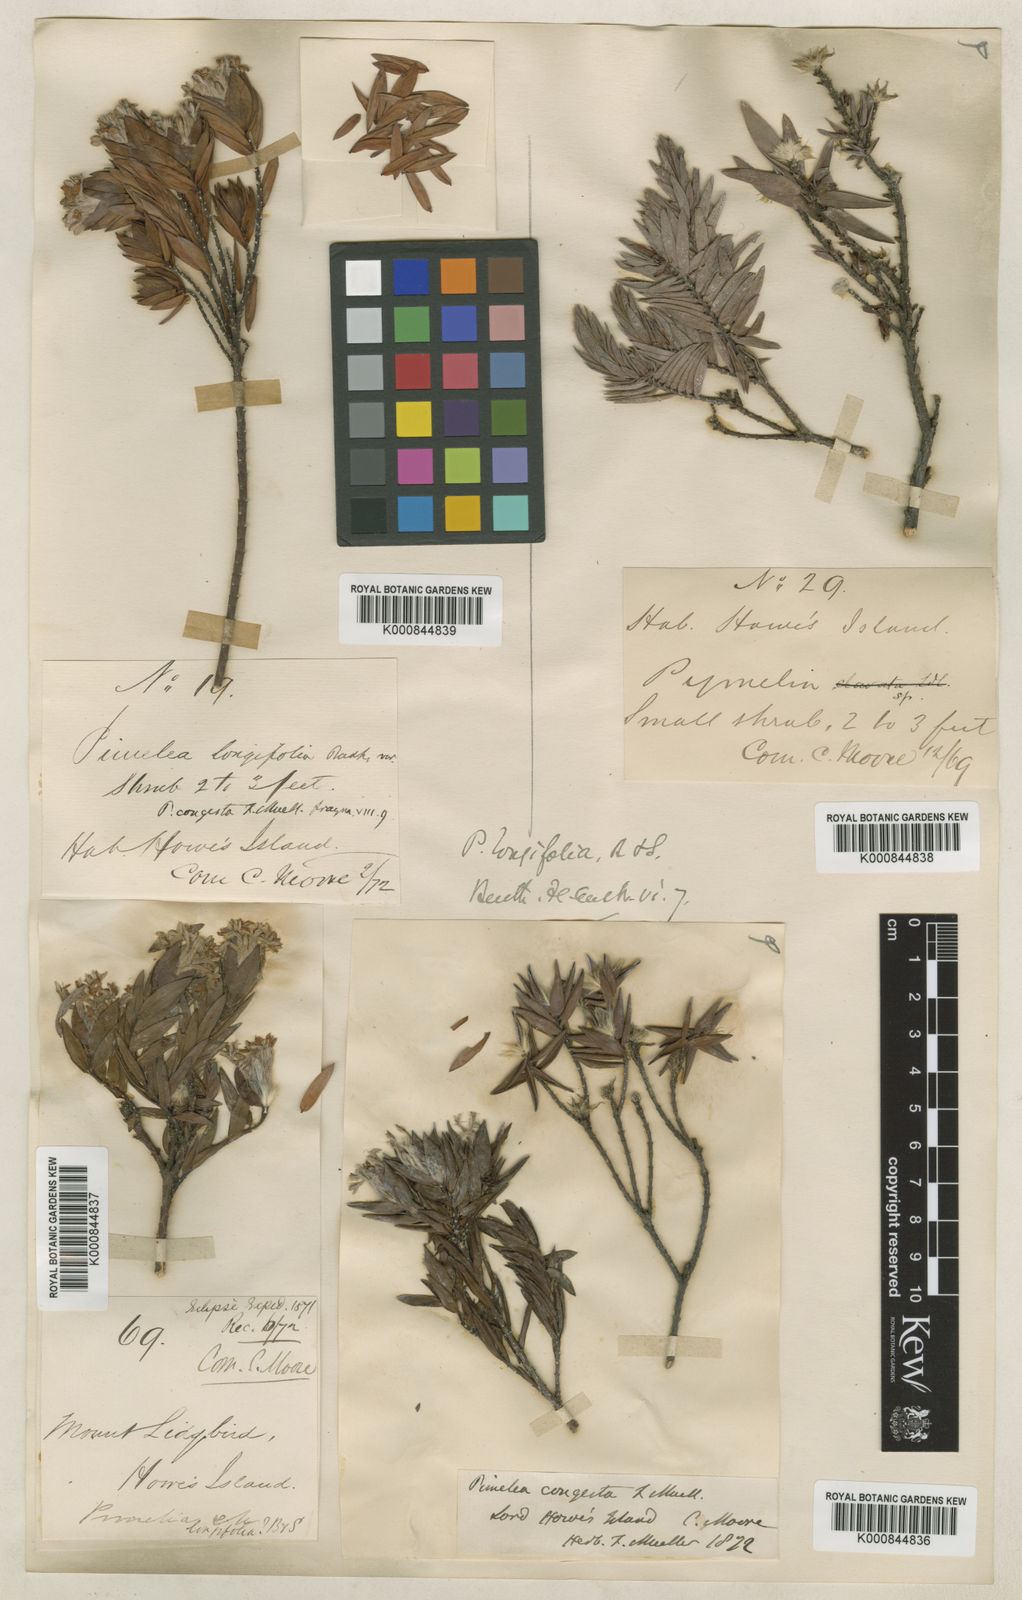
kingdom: Plantae
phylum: Tracheophyta
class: Magnoliopsida
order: Malvales
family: Thymelaeaceae
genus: Pimelea
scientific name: Pimelea congesta
